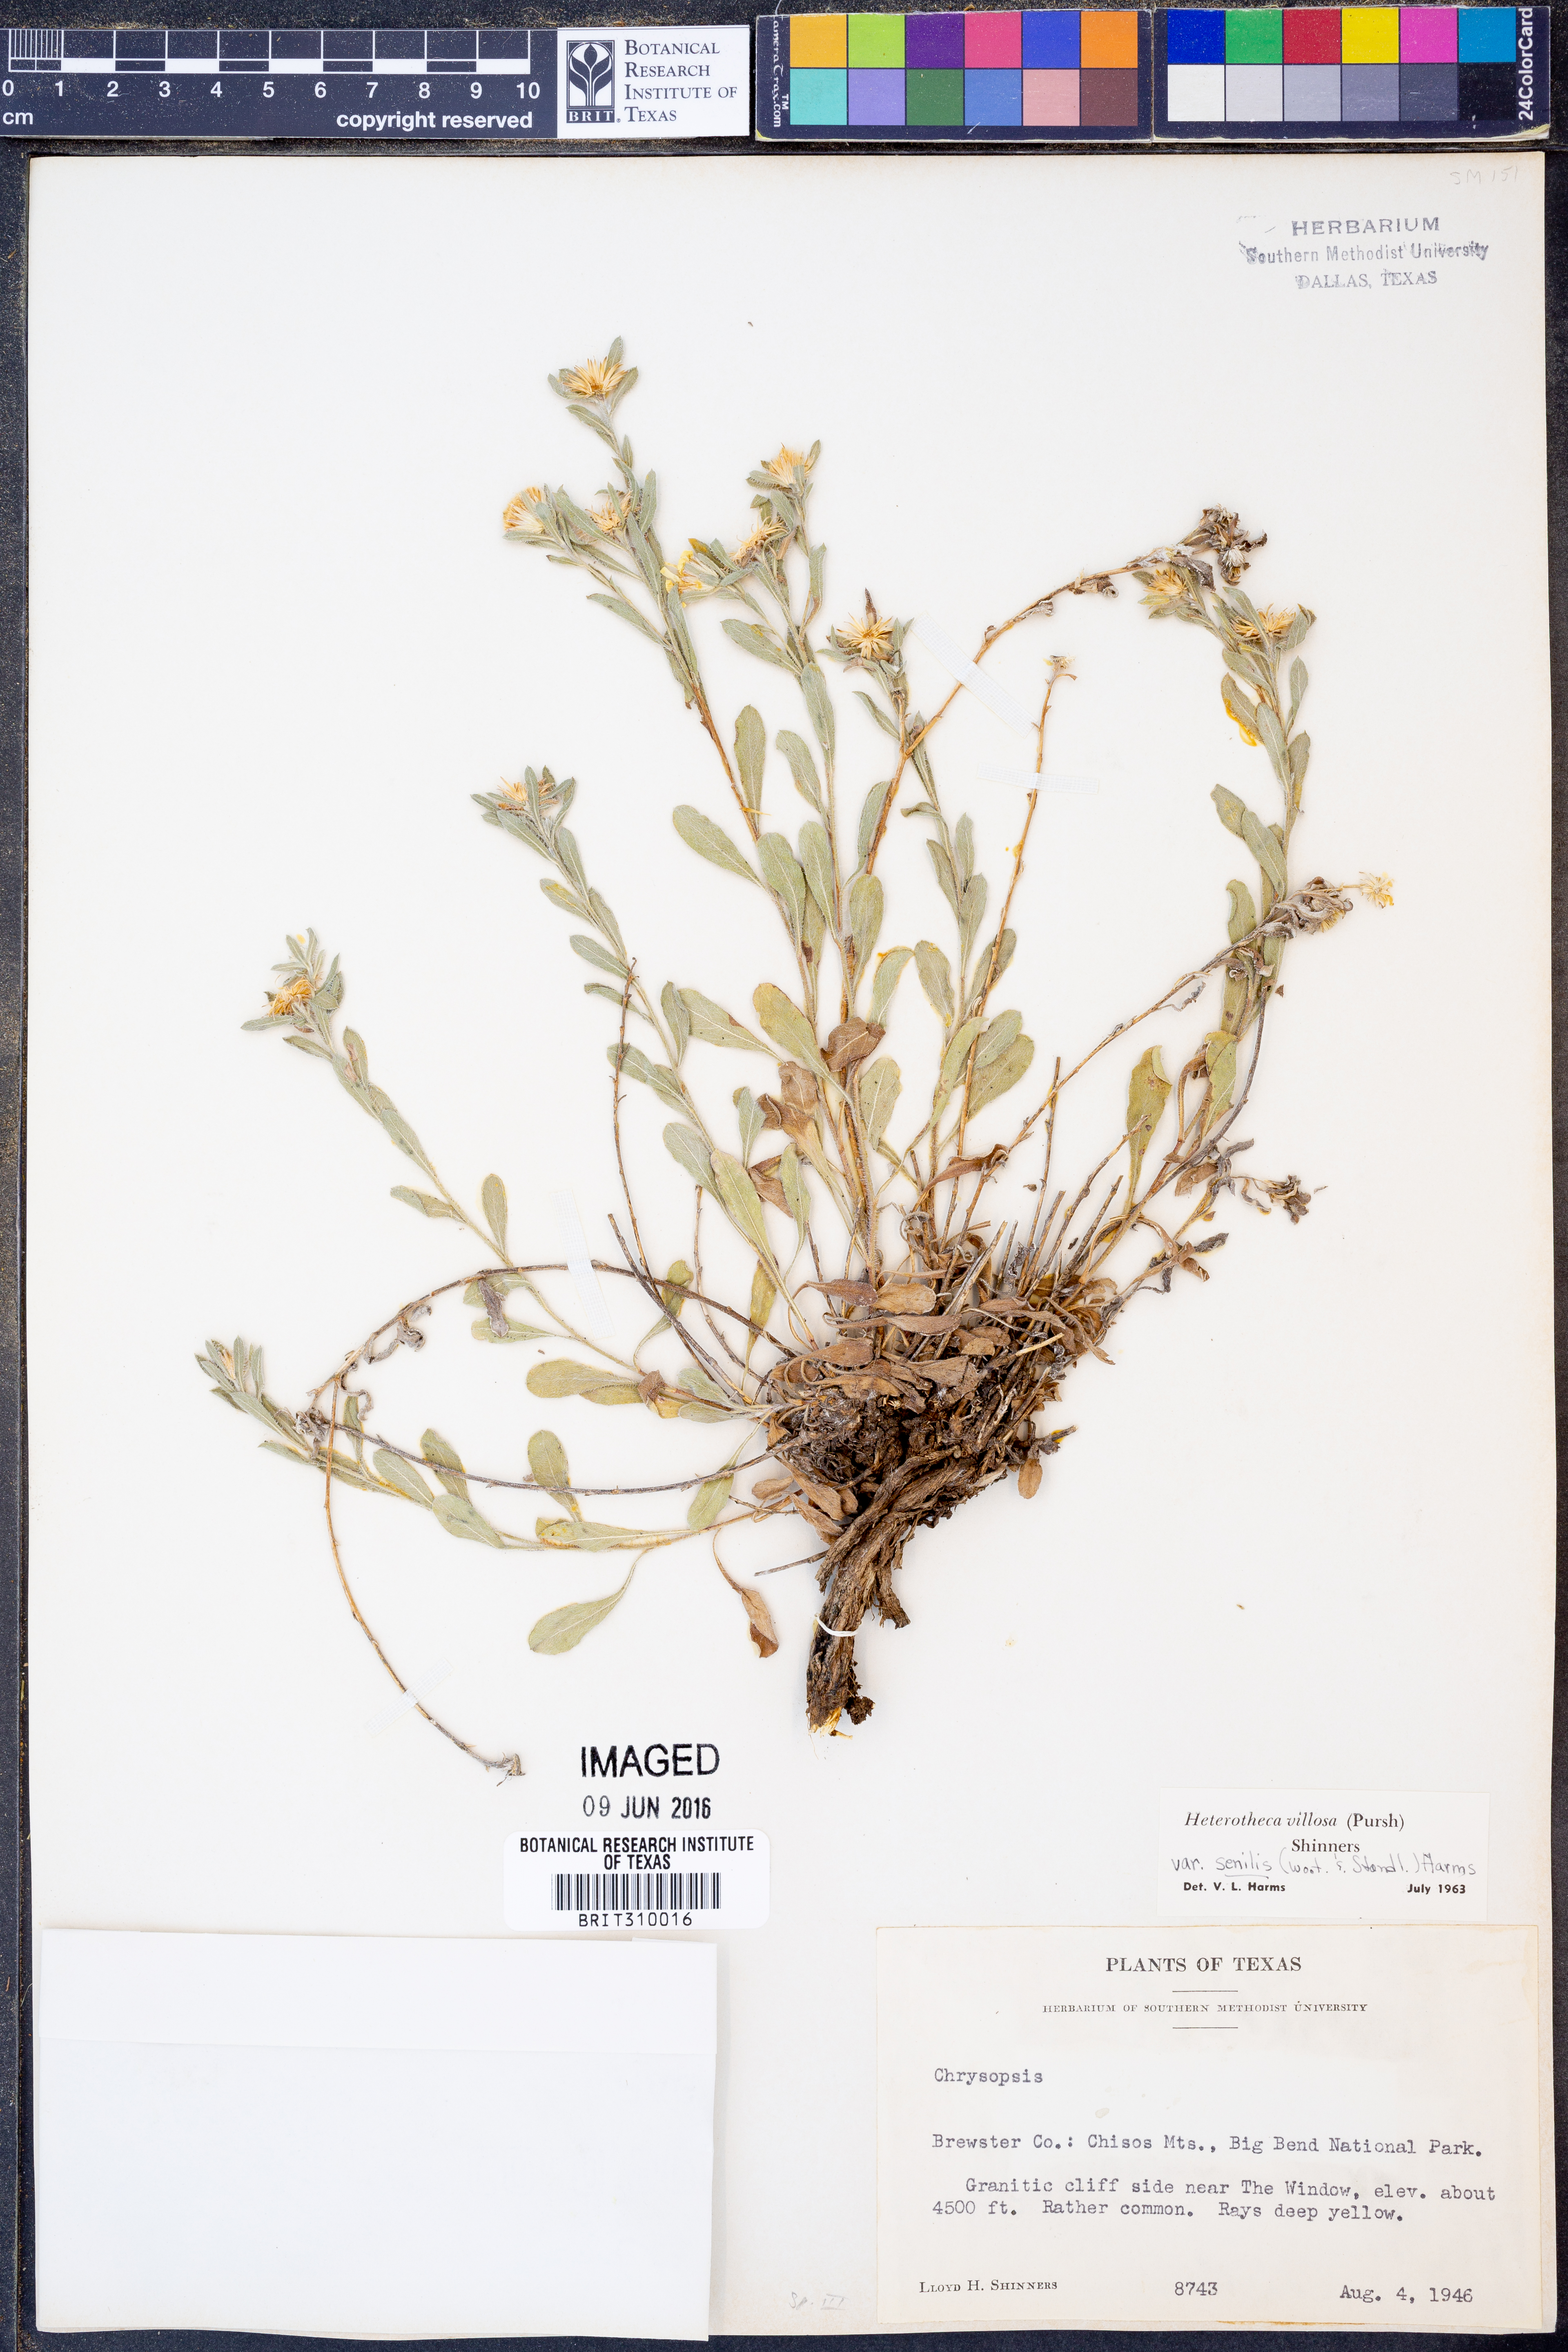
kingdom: Plantae
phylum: Tracheophyta
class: Magnoliopsida
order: Asterales
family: Asteraceae
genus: Heterotheca
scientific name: Heterotheca villosa
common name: Hairy false goldenaster
